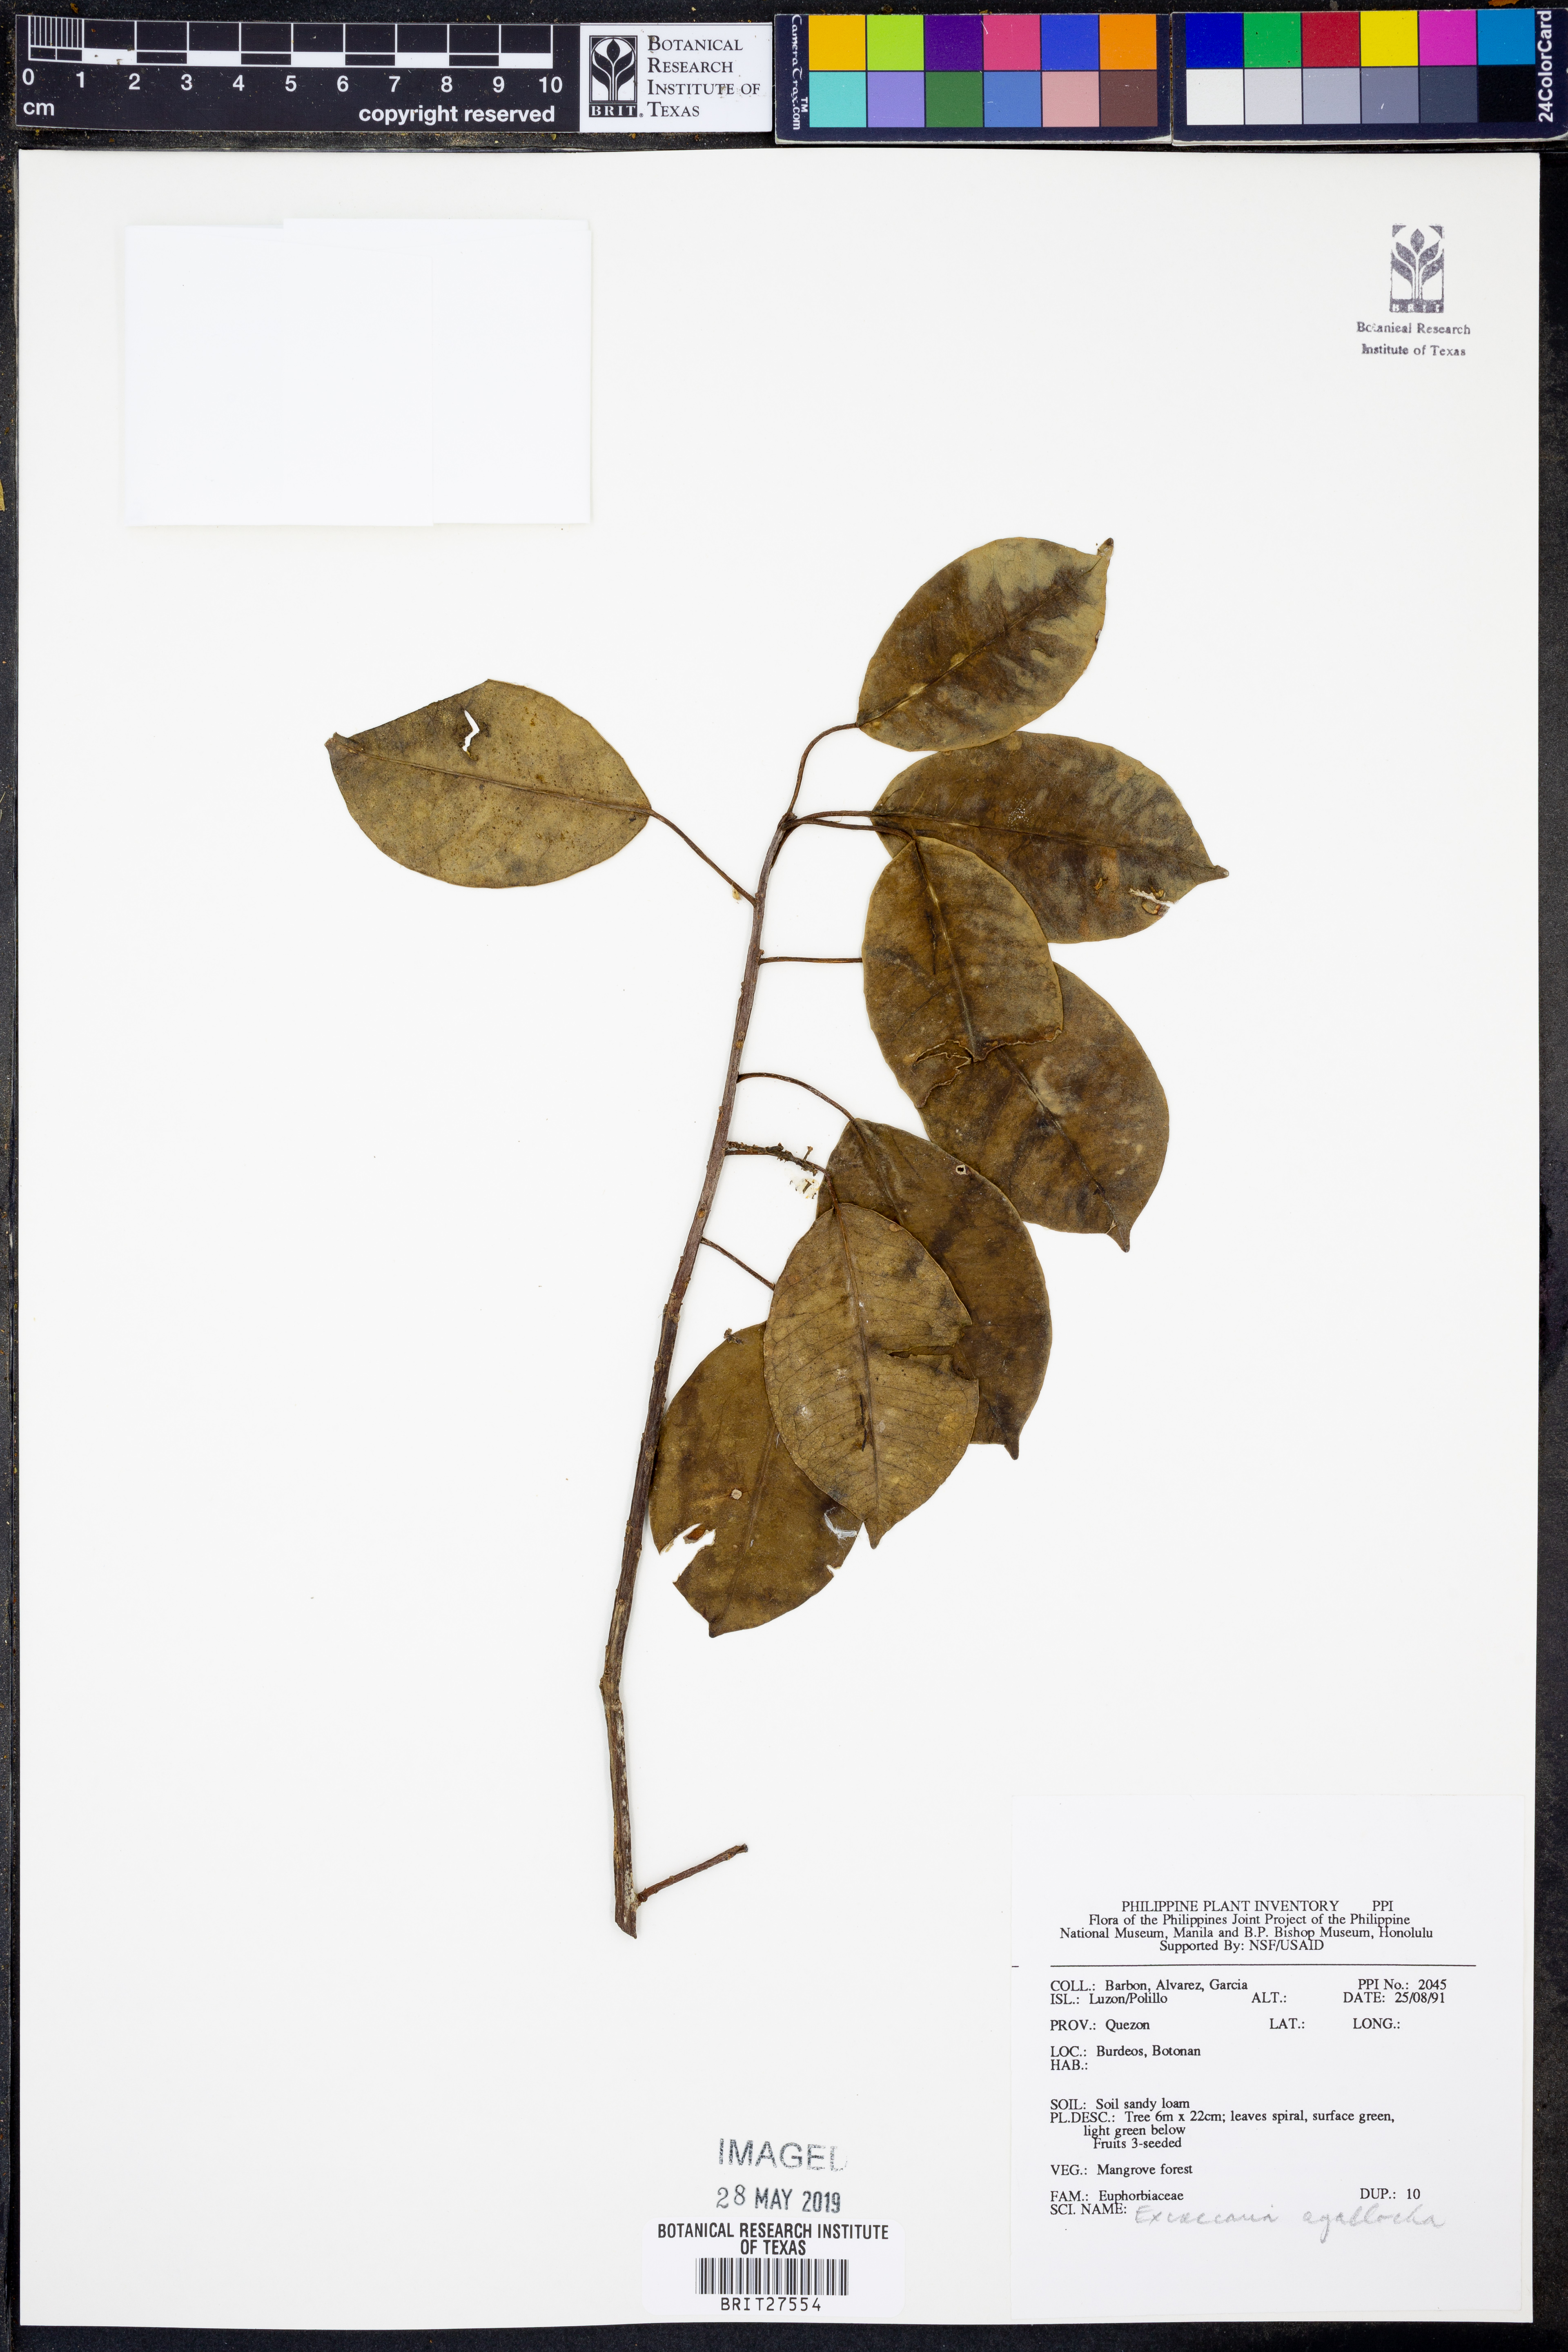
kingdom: Plantae
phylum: Tracheophyta
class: Magnoliopsida
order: Malpighiales
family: Euphorbiaceae
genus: Excoecaria
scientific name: Excoecaria agallocha
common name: River poisontree
